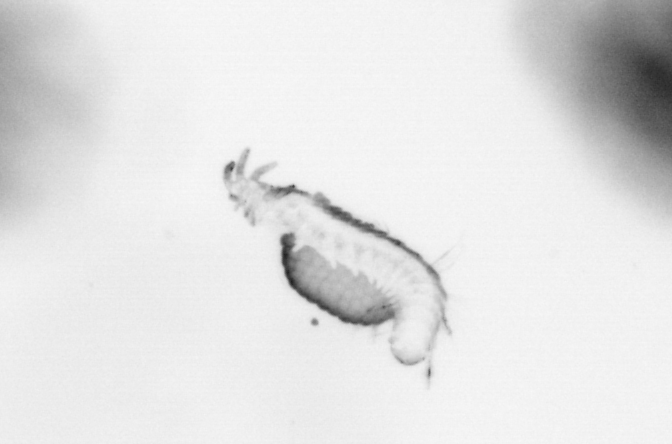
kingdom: Animalia
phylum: Annelida
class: Polychaeta
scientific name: Polychaeta
